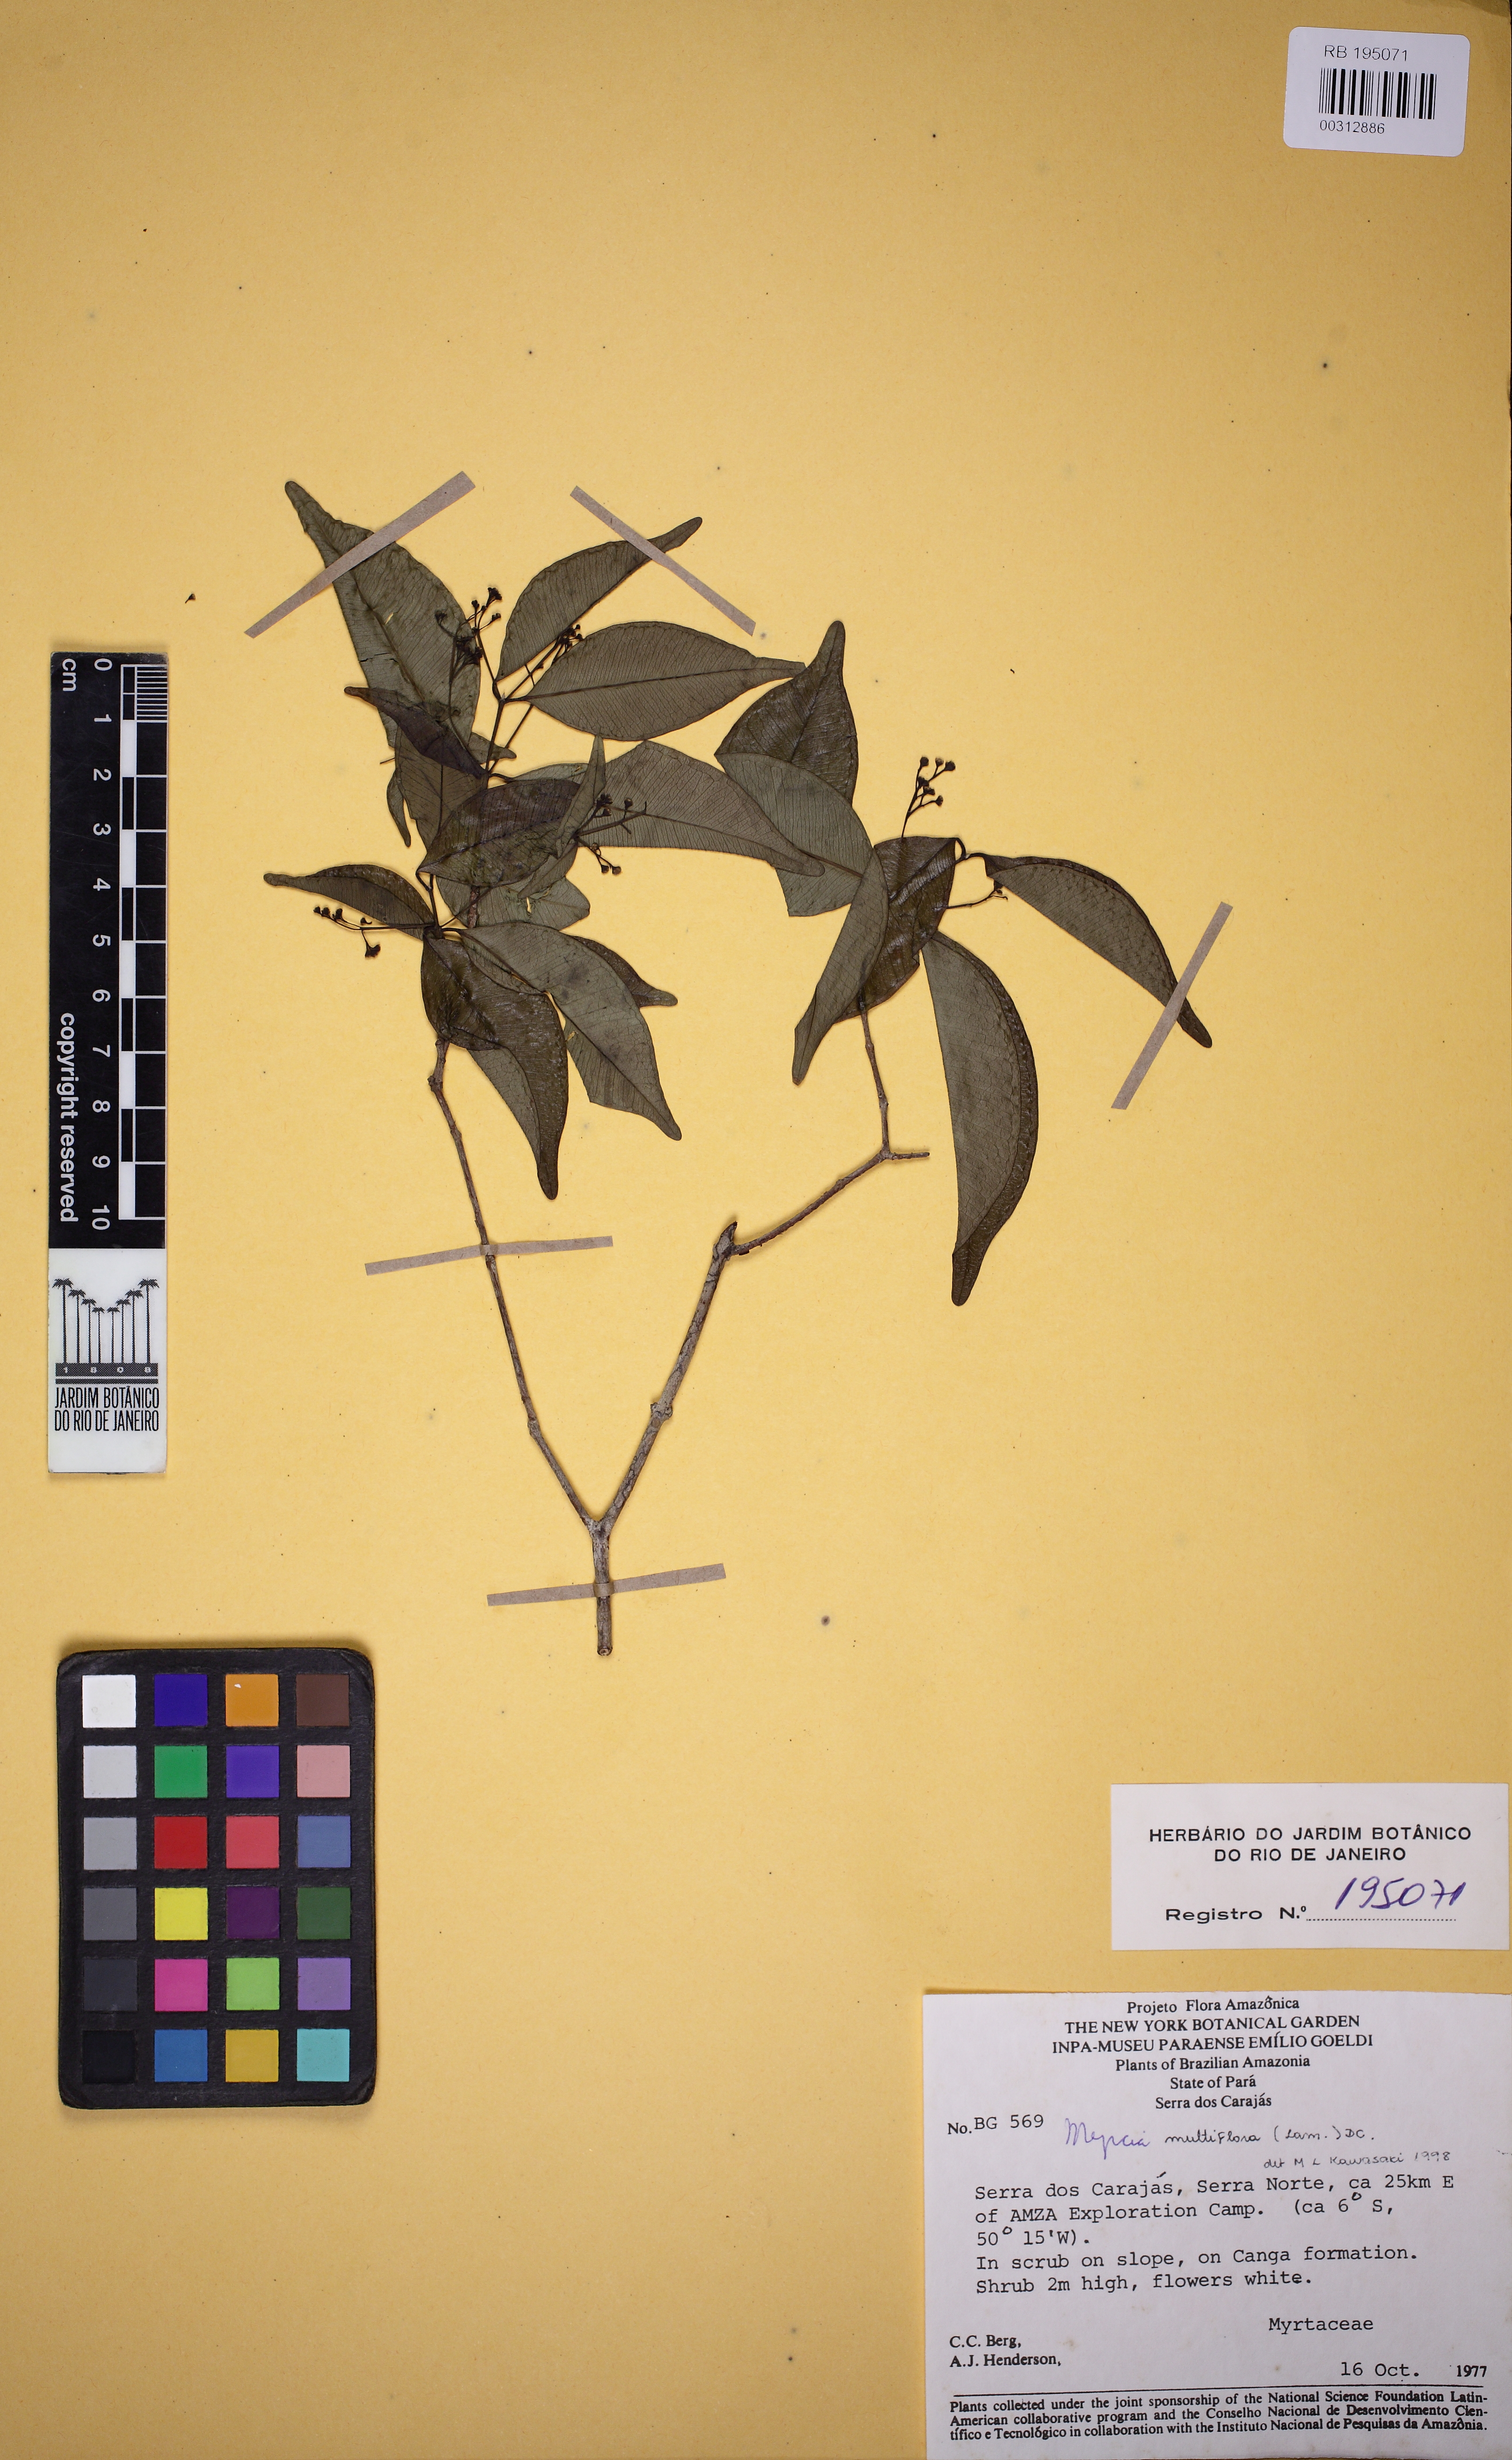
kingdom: Plantae
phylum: Tracheophyta
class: Magnoliopsida
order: Myrtales
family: Myrtaceae
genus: Myrcia
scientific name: Myrcia multiflora
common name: Pedra hume
